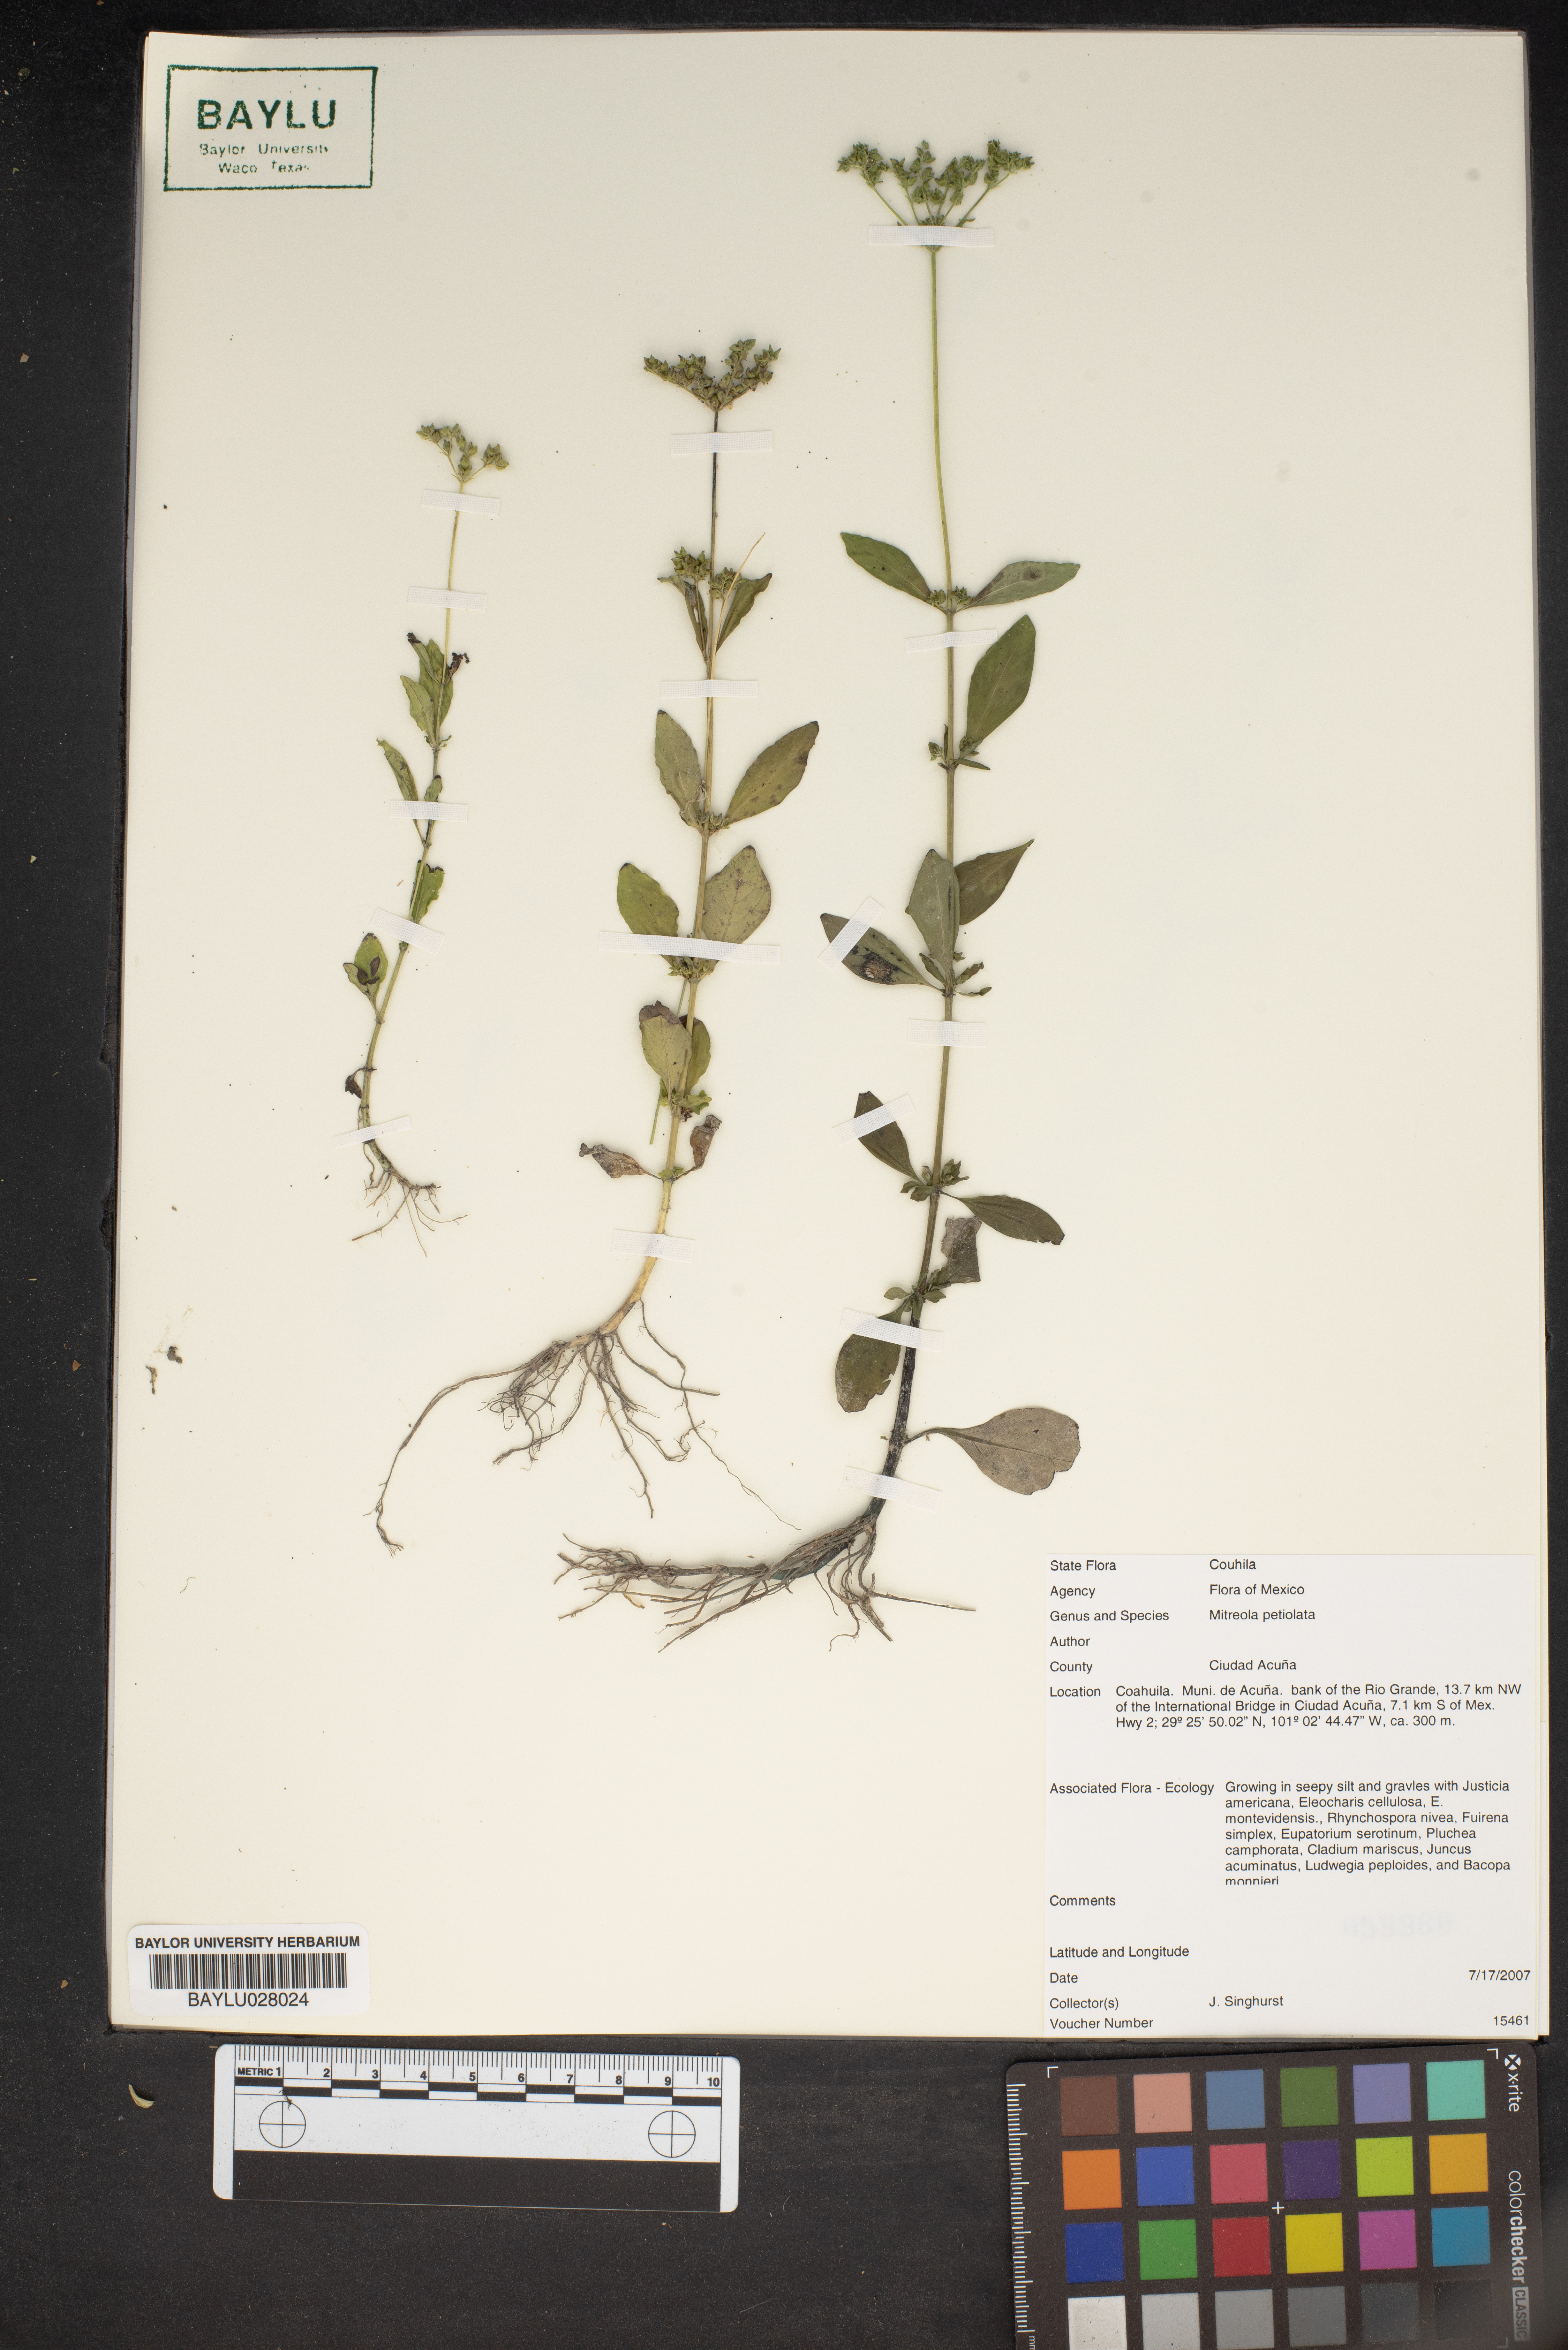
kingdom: Plantae
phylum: Tracheophyta
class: Magnoliopsida
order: Gentianales
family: Loganiaceae
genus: Mitreola
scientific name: Mitreola petiolata
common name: Lax hornpod
